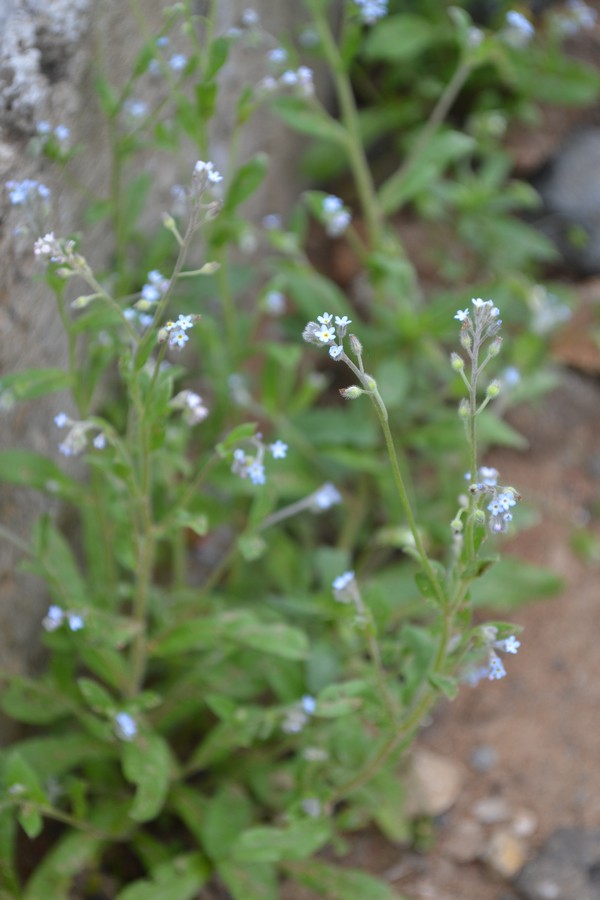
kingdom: Plantae
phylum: Tracheophyta
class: Magnoliopsida
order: Boraginales
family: Boraginaceae
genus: Myosotis
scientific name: Myosotis stricta
